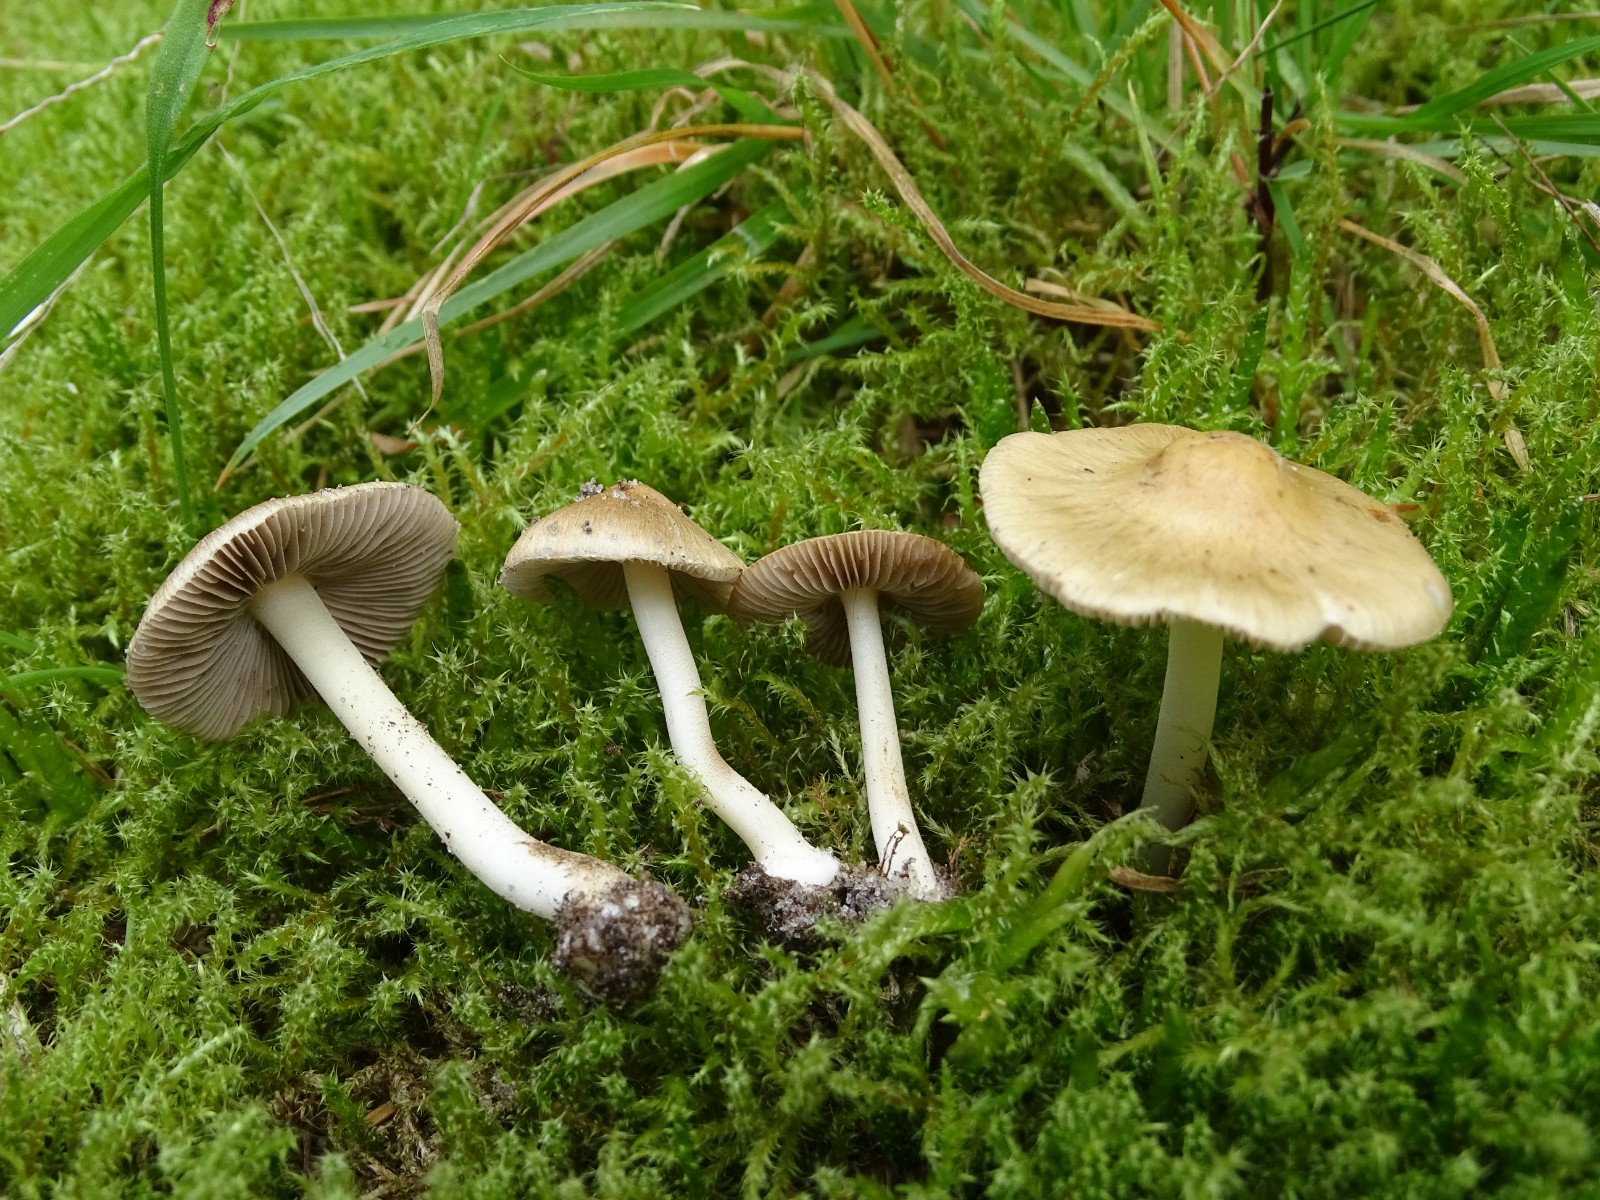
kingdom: Fungi
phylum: Basidiomycota
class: Agaricomycetes
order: Agaricales
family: Inocybaceae
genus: Inocybe
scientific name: Inocybe mixtilis
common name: randknoldet trævlhat
